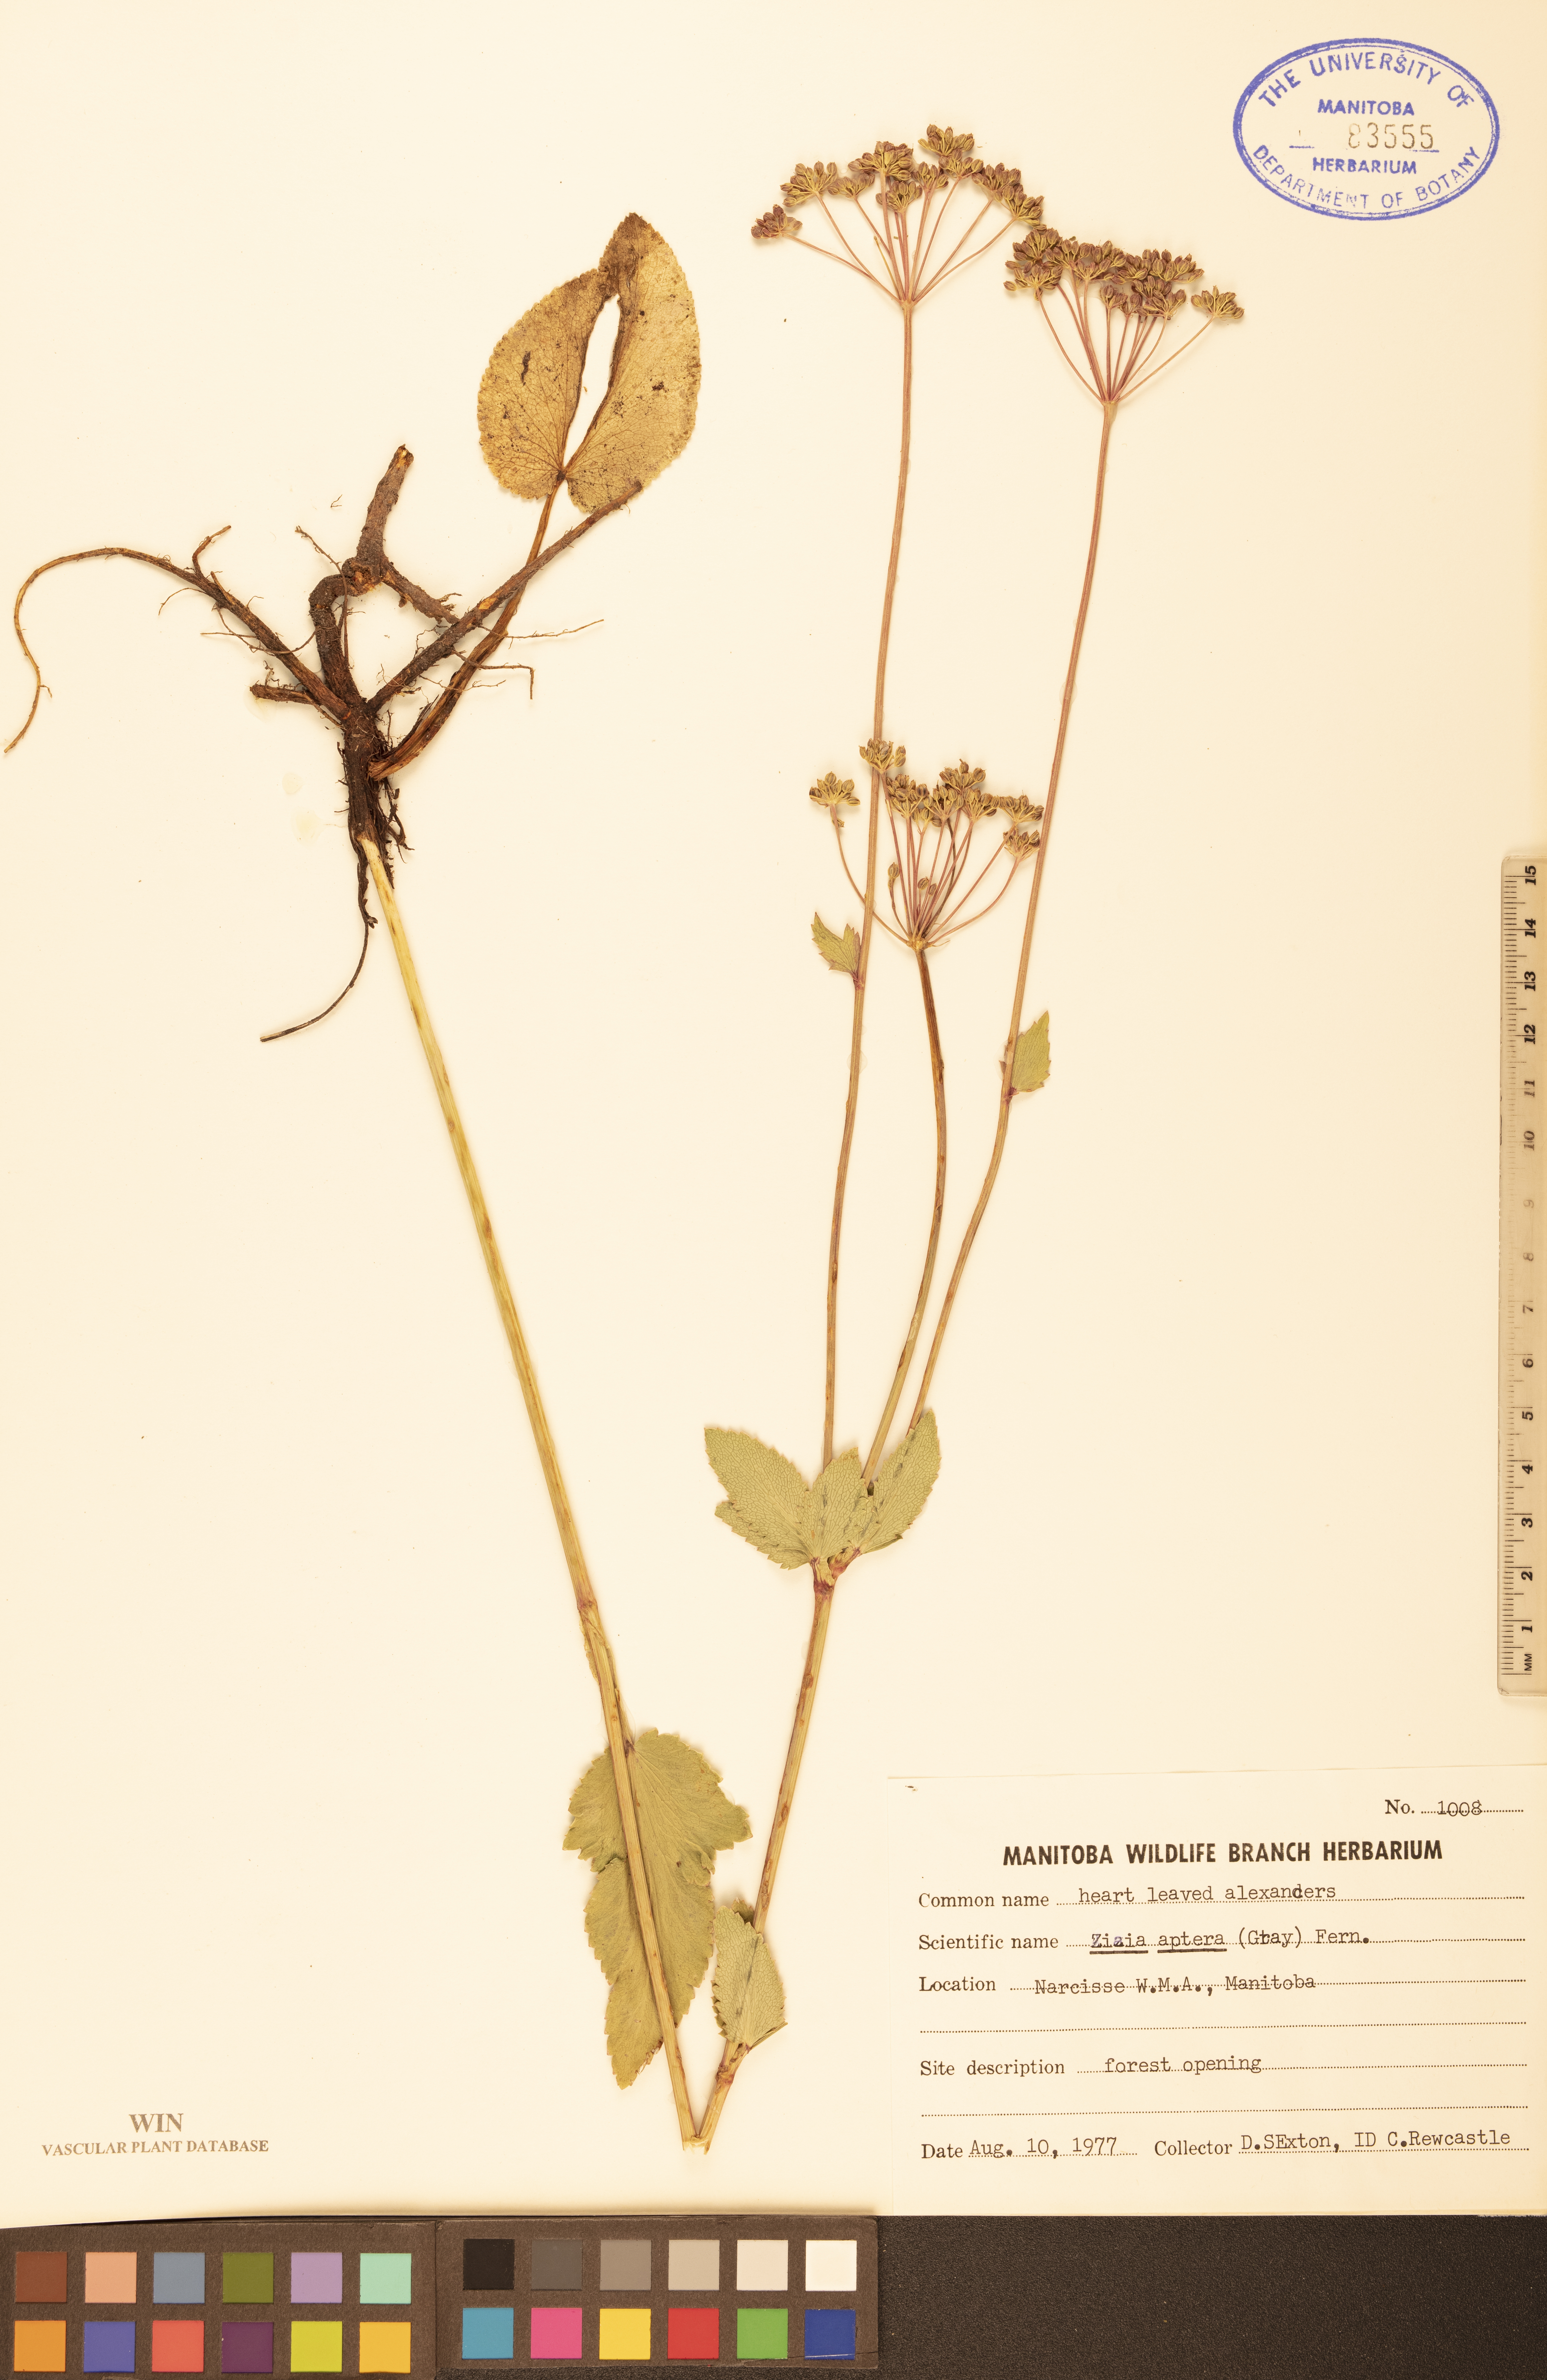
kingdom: Plantae
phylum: Tracheophyta
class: Magnoliopsida
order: Apiales
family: Apiaceae
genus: Zizia
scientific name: Zizia aptera
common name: Heart-leaved alexanders
